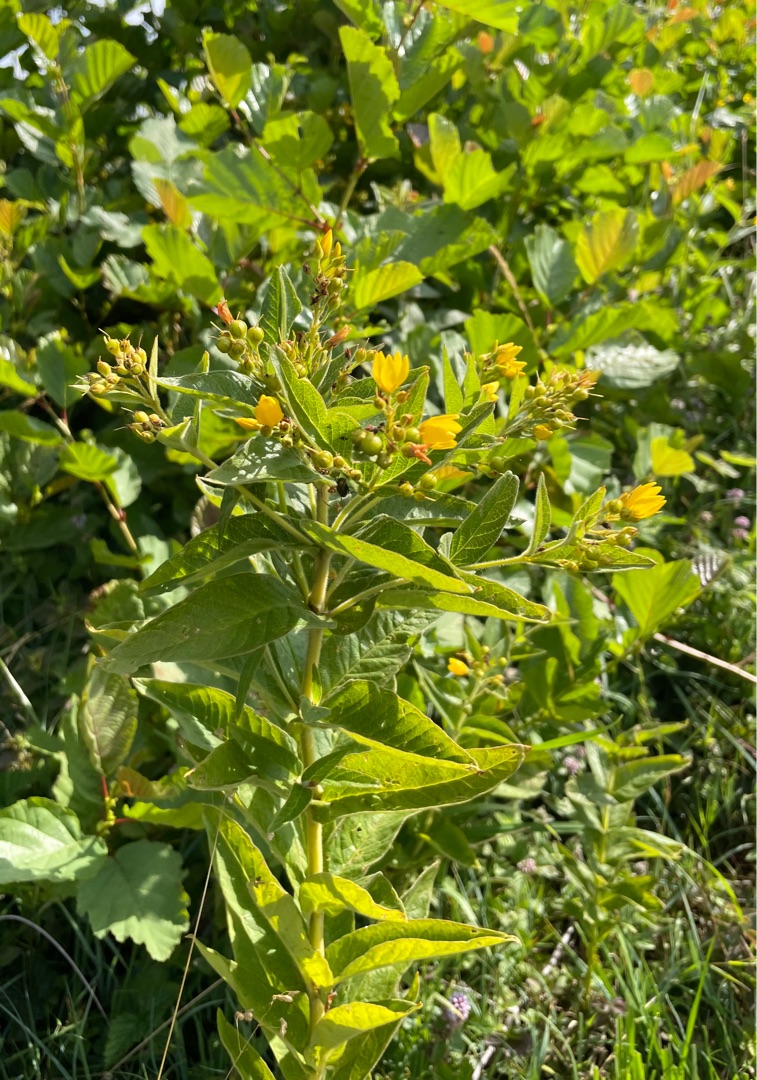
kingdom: Plantae
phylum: Tracheophyta
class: Magnoliopsida
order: Ericales
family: Primulaceae
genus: Lysimachia
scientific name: Lysimachia vulgaris
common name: Almindelig fredløs
